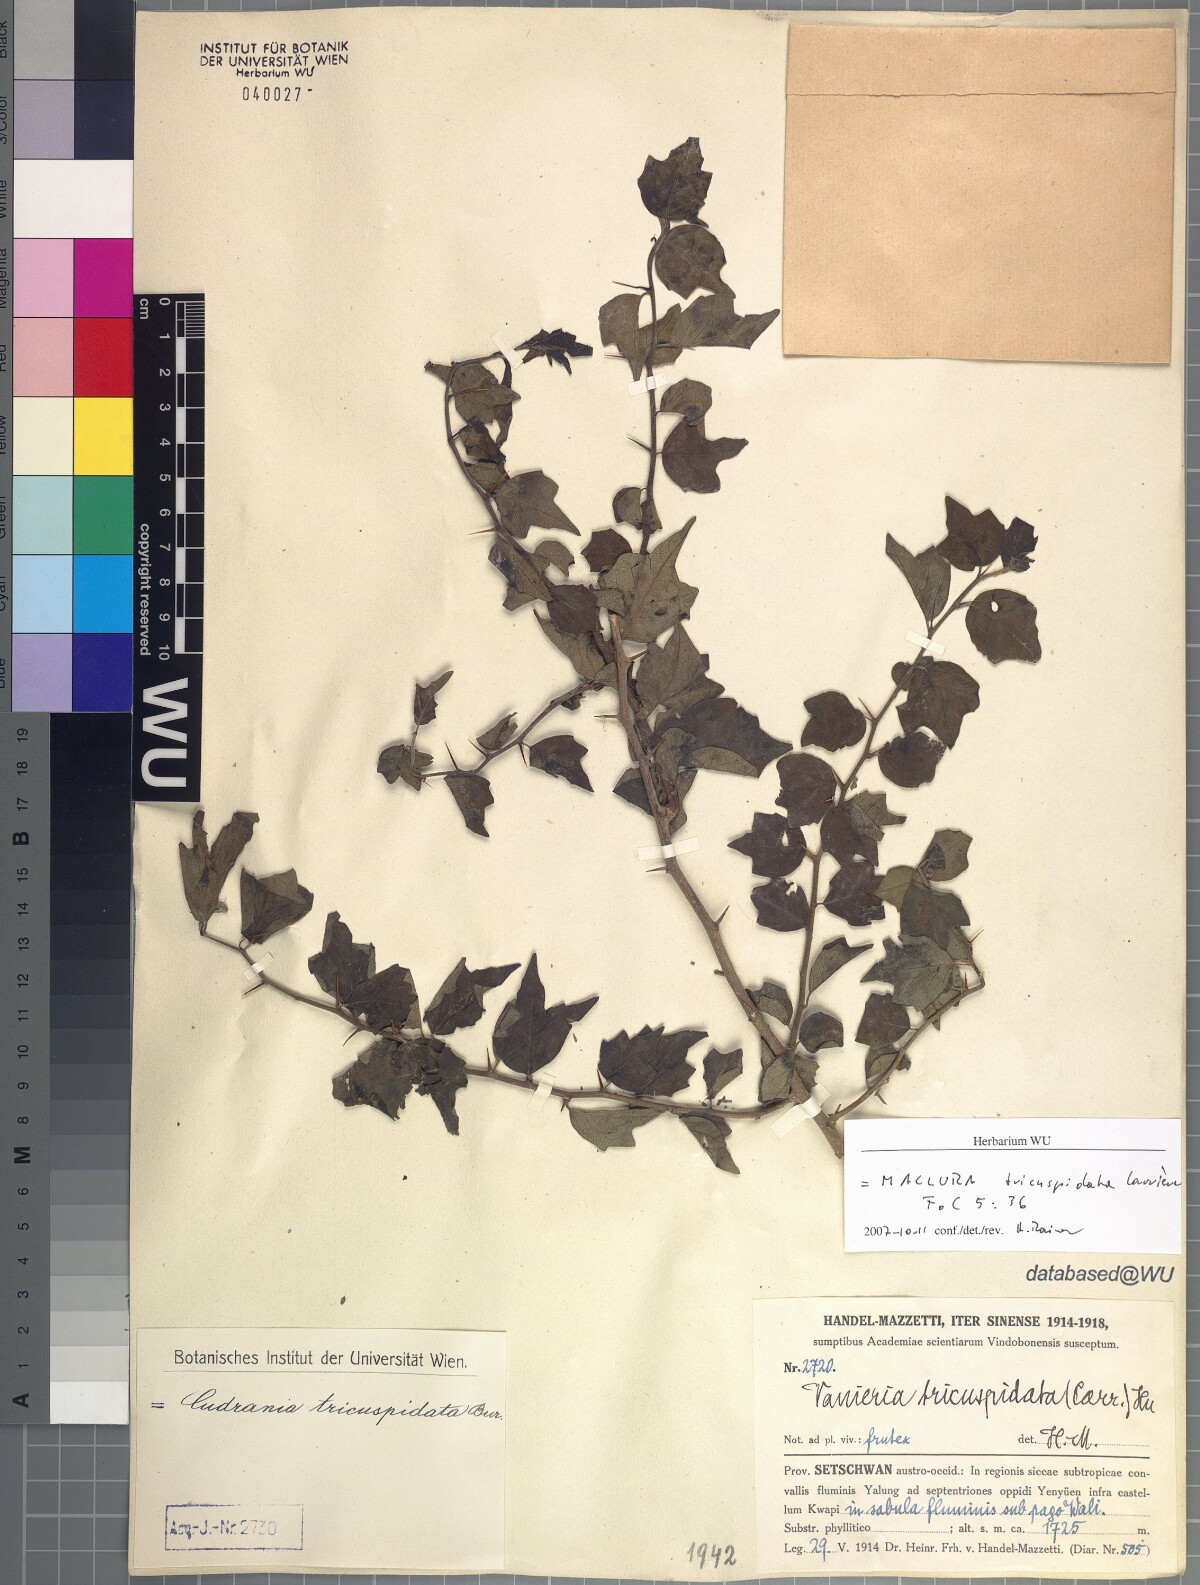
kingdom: Plantae
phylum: Tracheophyta
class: Magnoliopsida
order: Rosales
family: Moraceae
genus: Maclura
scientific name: Maclura tricuspidata
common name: Storehousebush
